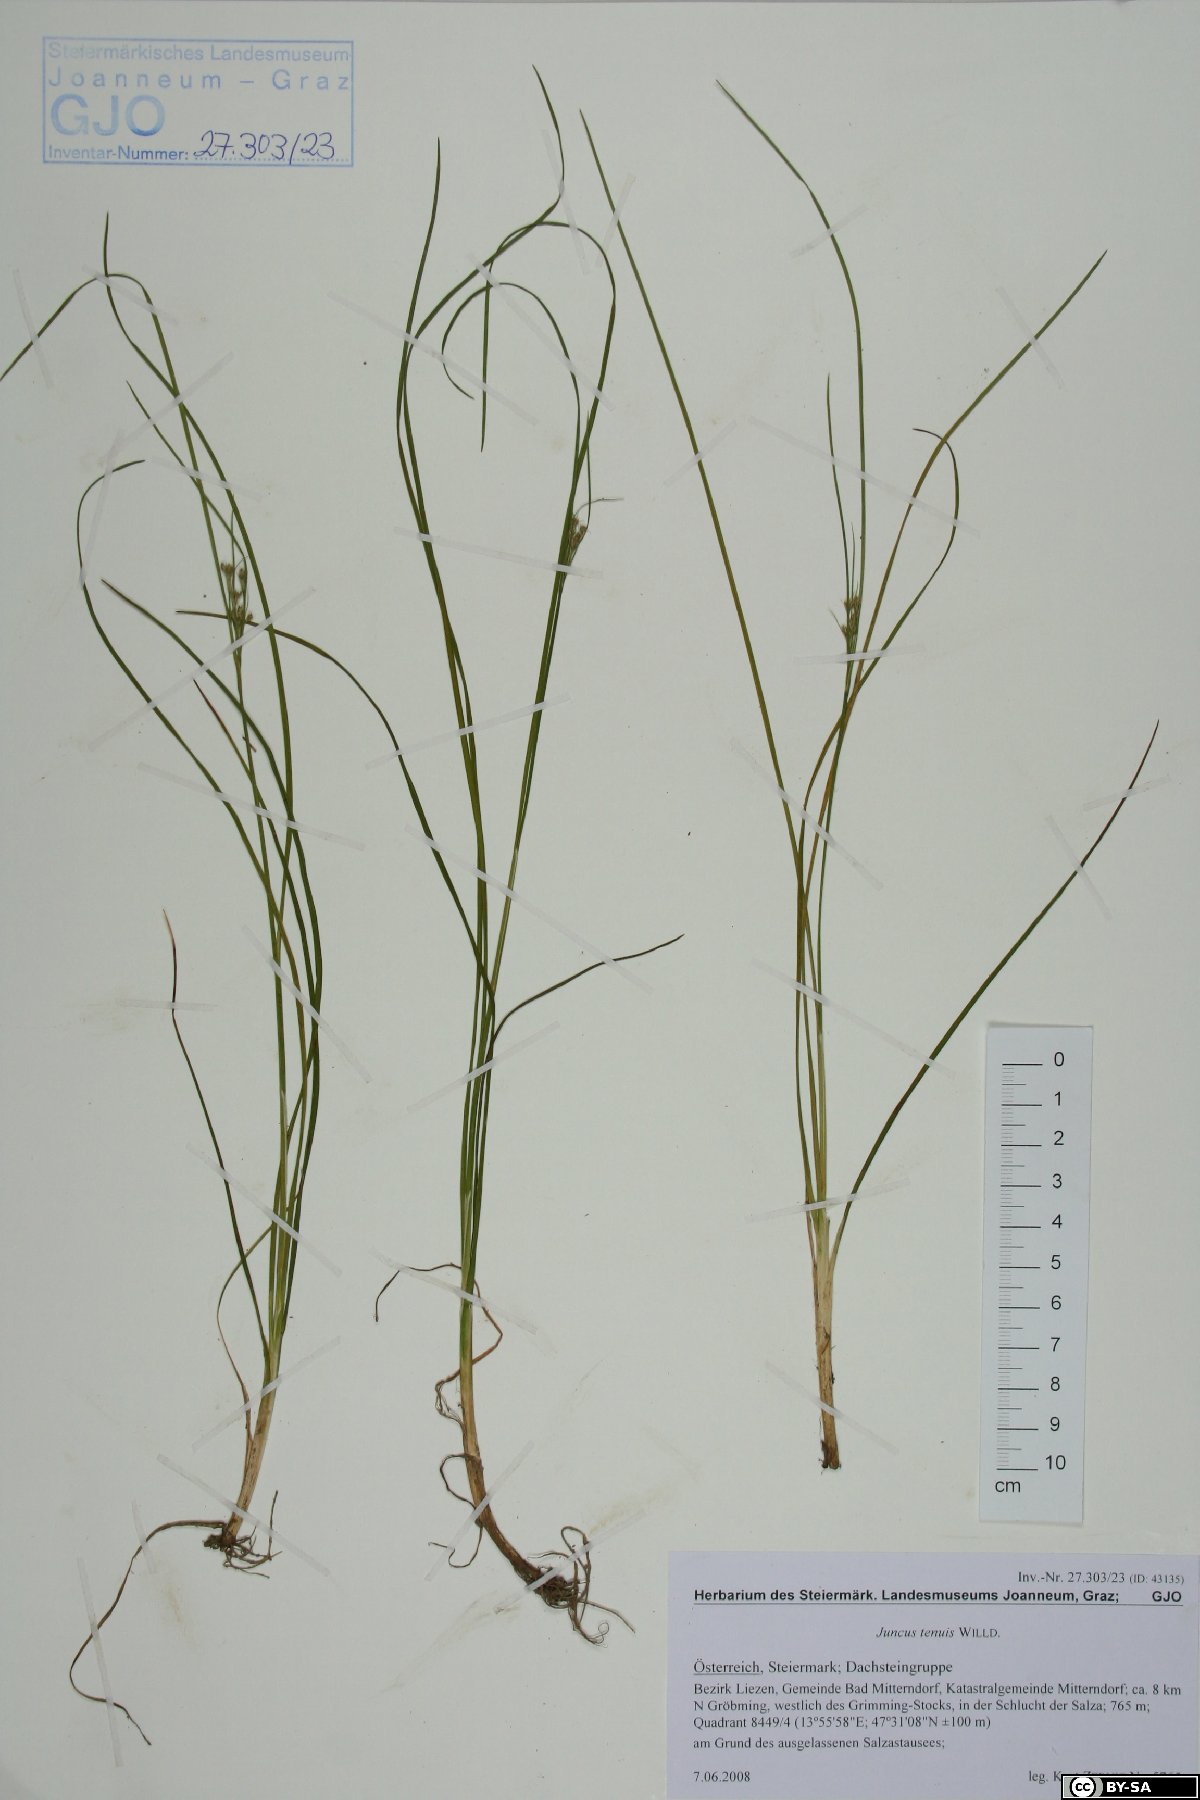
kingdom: Plantae
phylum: Tracheophyta
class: Liliopsida
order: Poales
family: Juncaceae
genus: Juncus
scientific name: Juncus tenuis
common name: Slender rush
